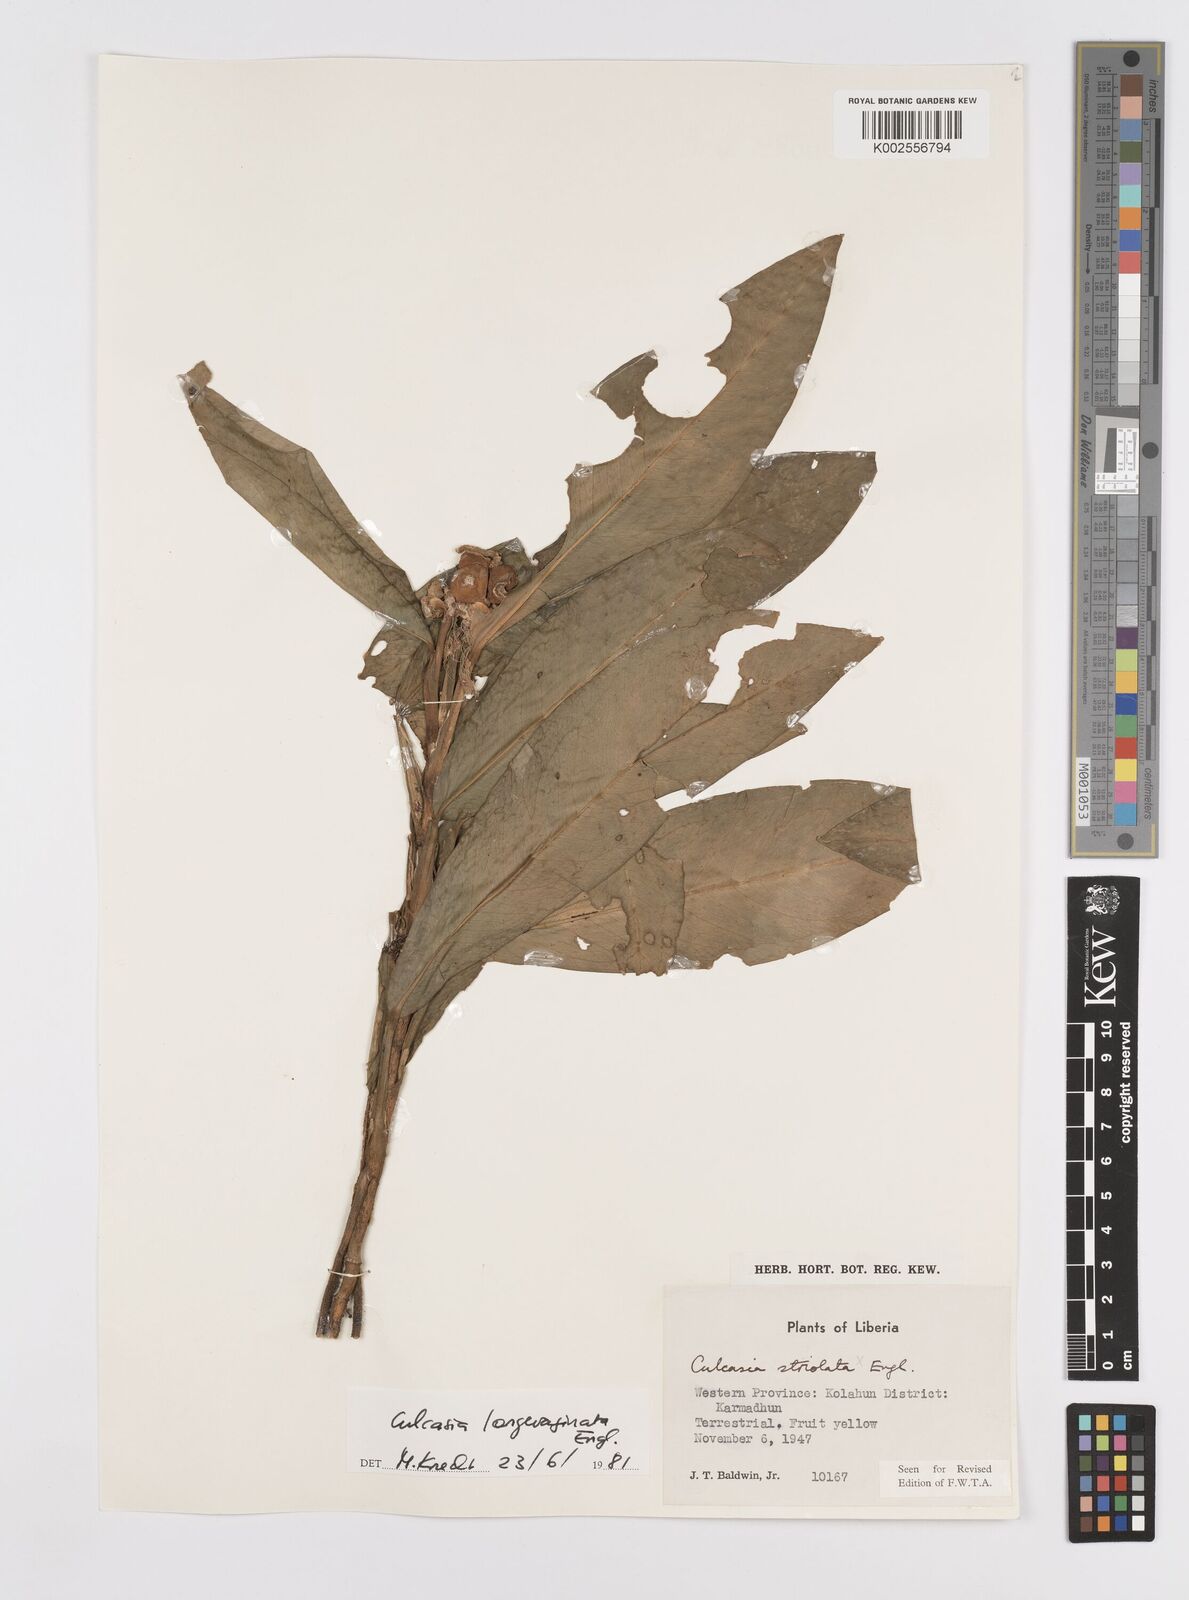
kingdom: Plantae
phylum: Tracheophyta
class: Liliopsida
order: Alismatales
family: Araceae
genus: Culcasia
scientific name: Culcasia striolata
